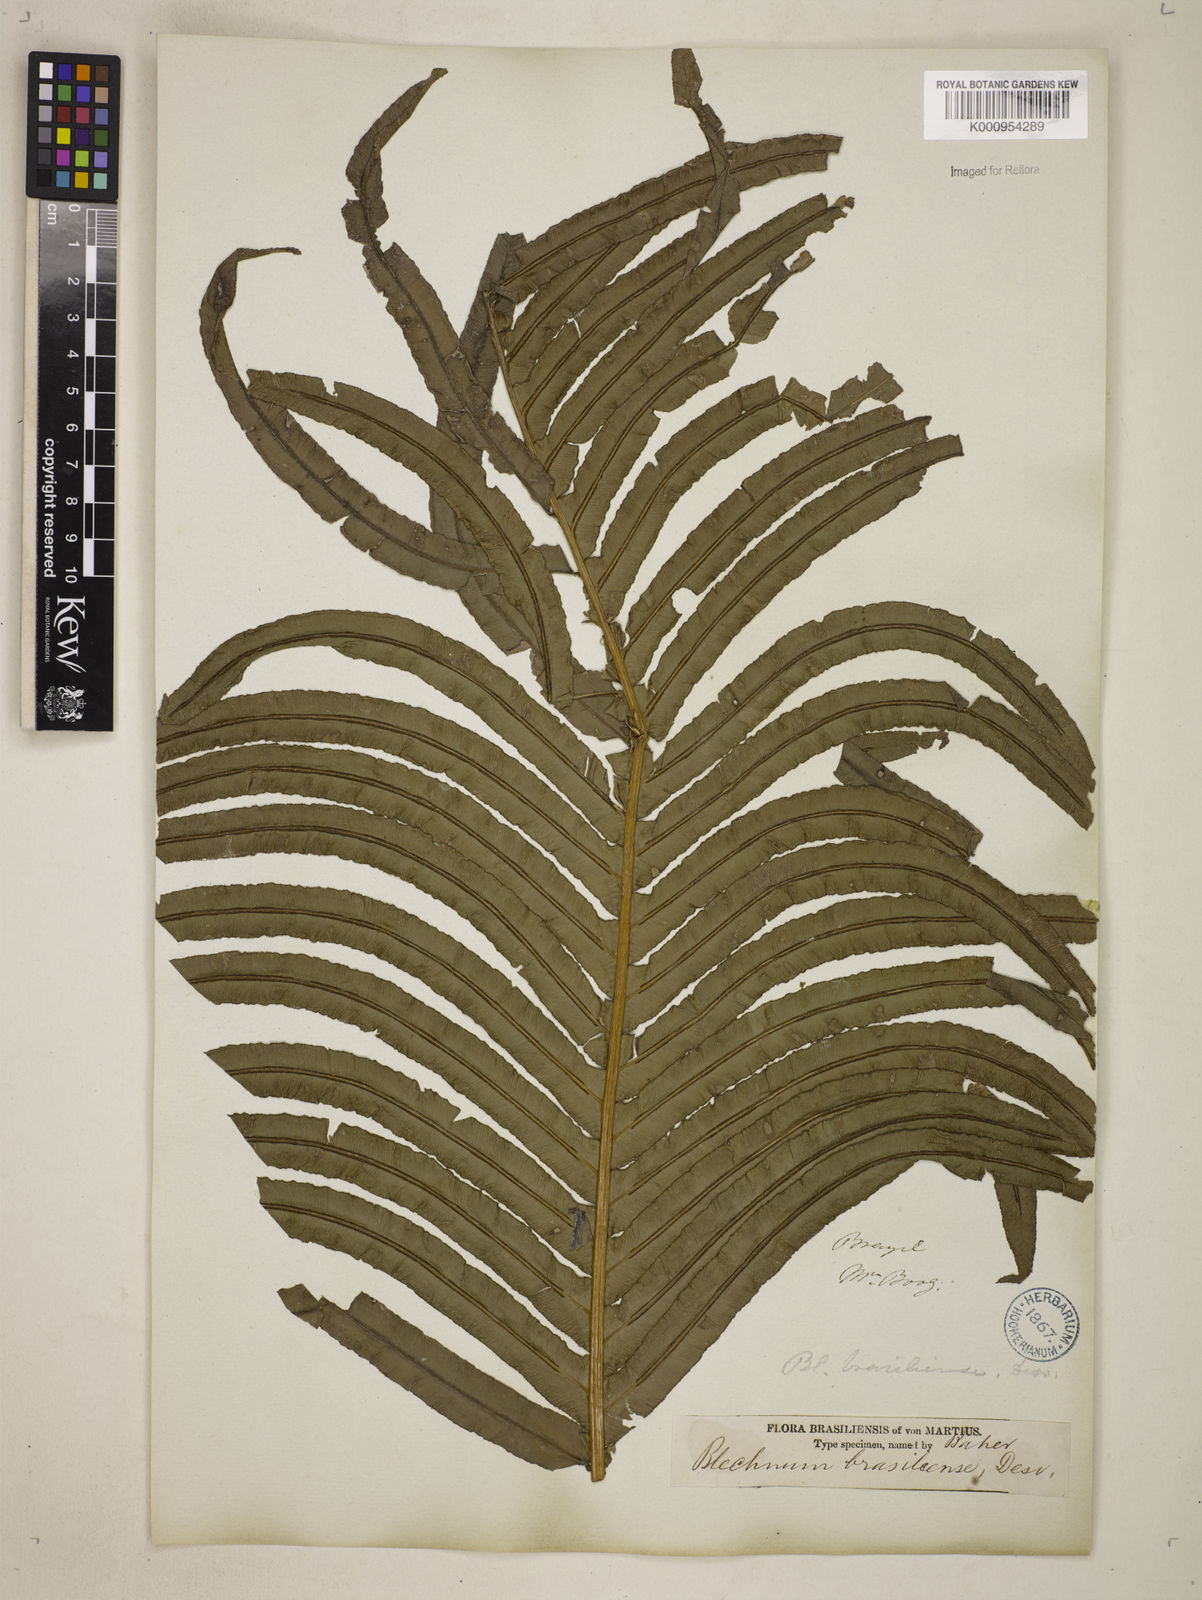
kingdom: Plantae
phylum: Tracheophyta
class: Polypodiopsida
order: Polypodiales
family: Blechnaceae
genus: Neoblechnum
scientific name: Neoblechnum brasiliense
